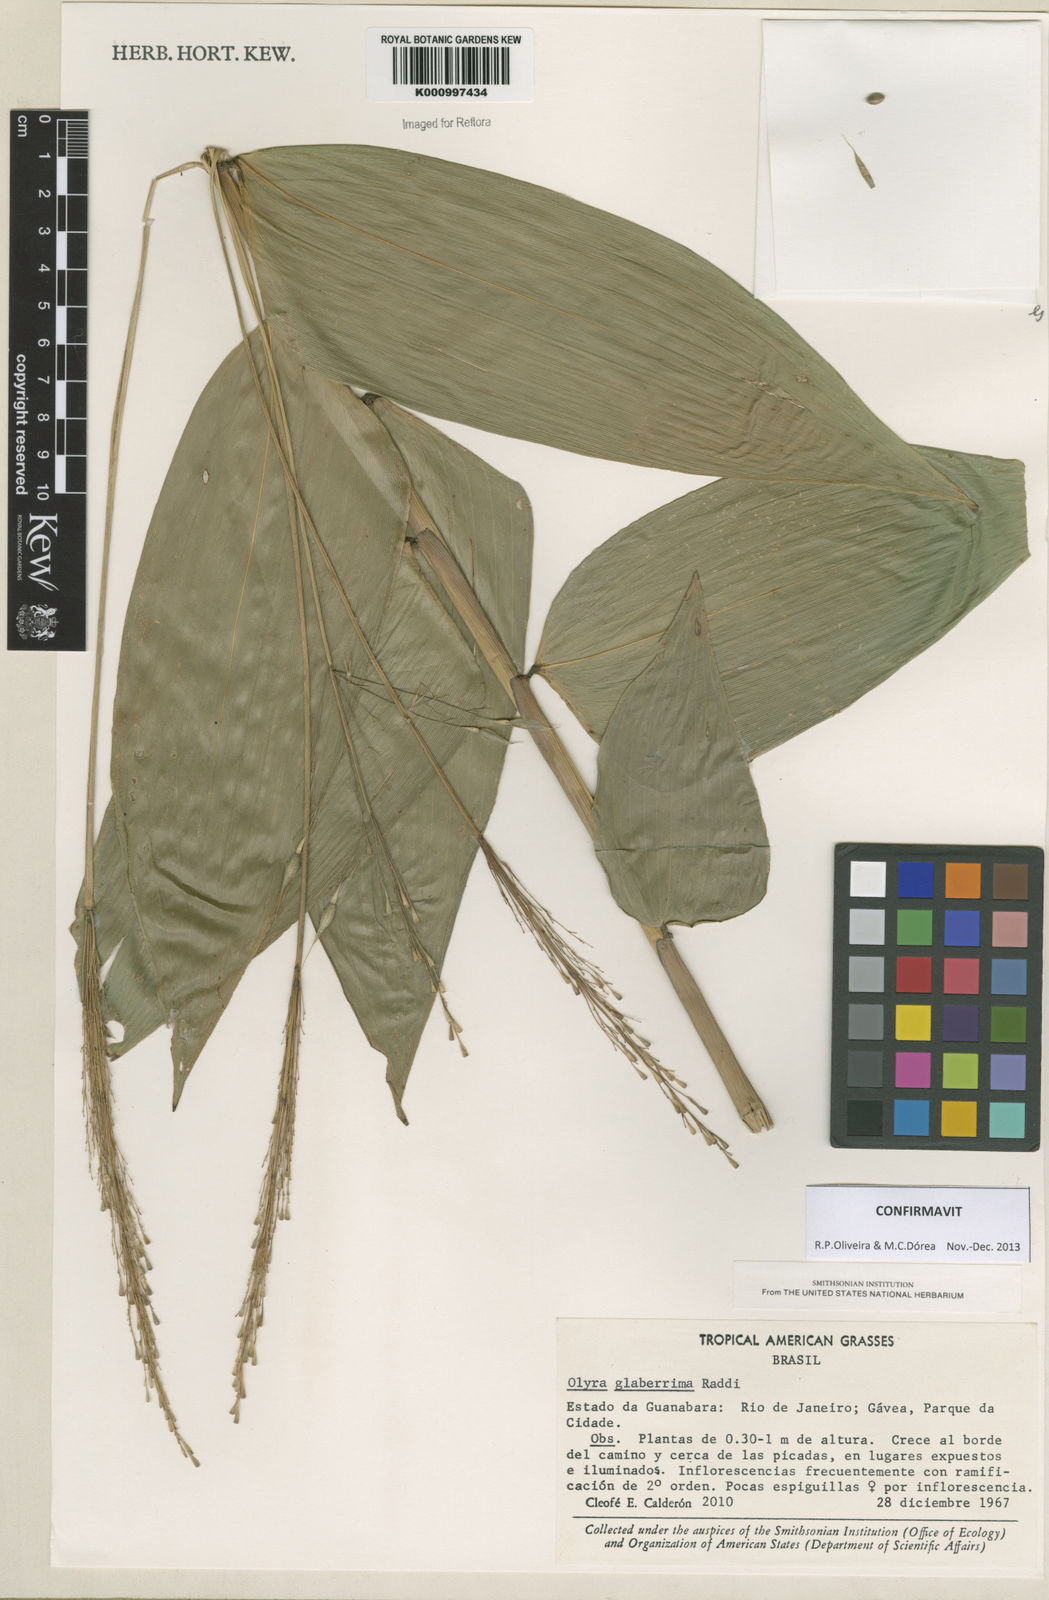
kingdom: Plantae
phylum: Tracheophyta
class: Liliopsida
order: Poales
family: Poaceae
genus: Olyra
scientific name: Olyra glaberrima
